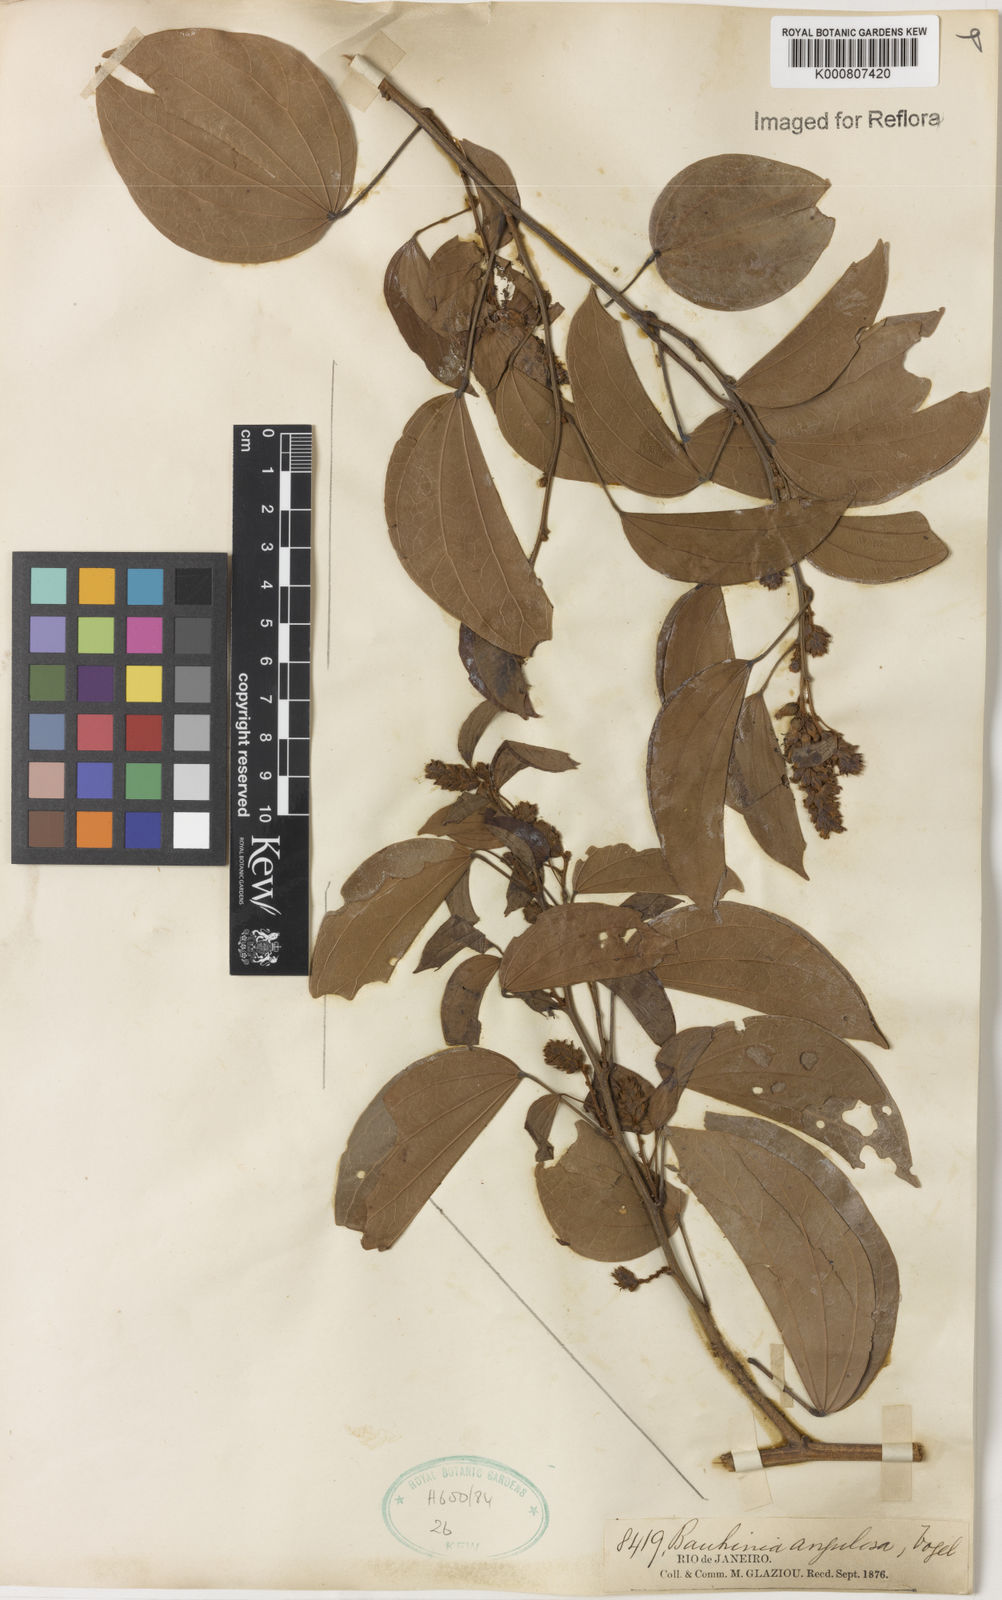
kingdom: Plantae
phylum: Tracheophyta
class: Magnoliopsida
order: Fabales
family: Fabaceae
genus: Schnella
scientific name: Schnella angulosa
